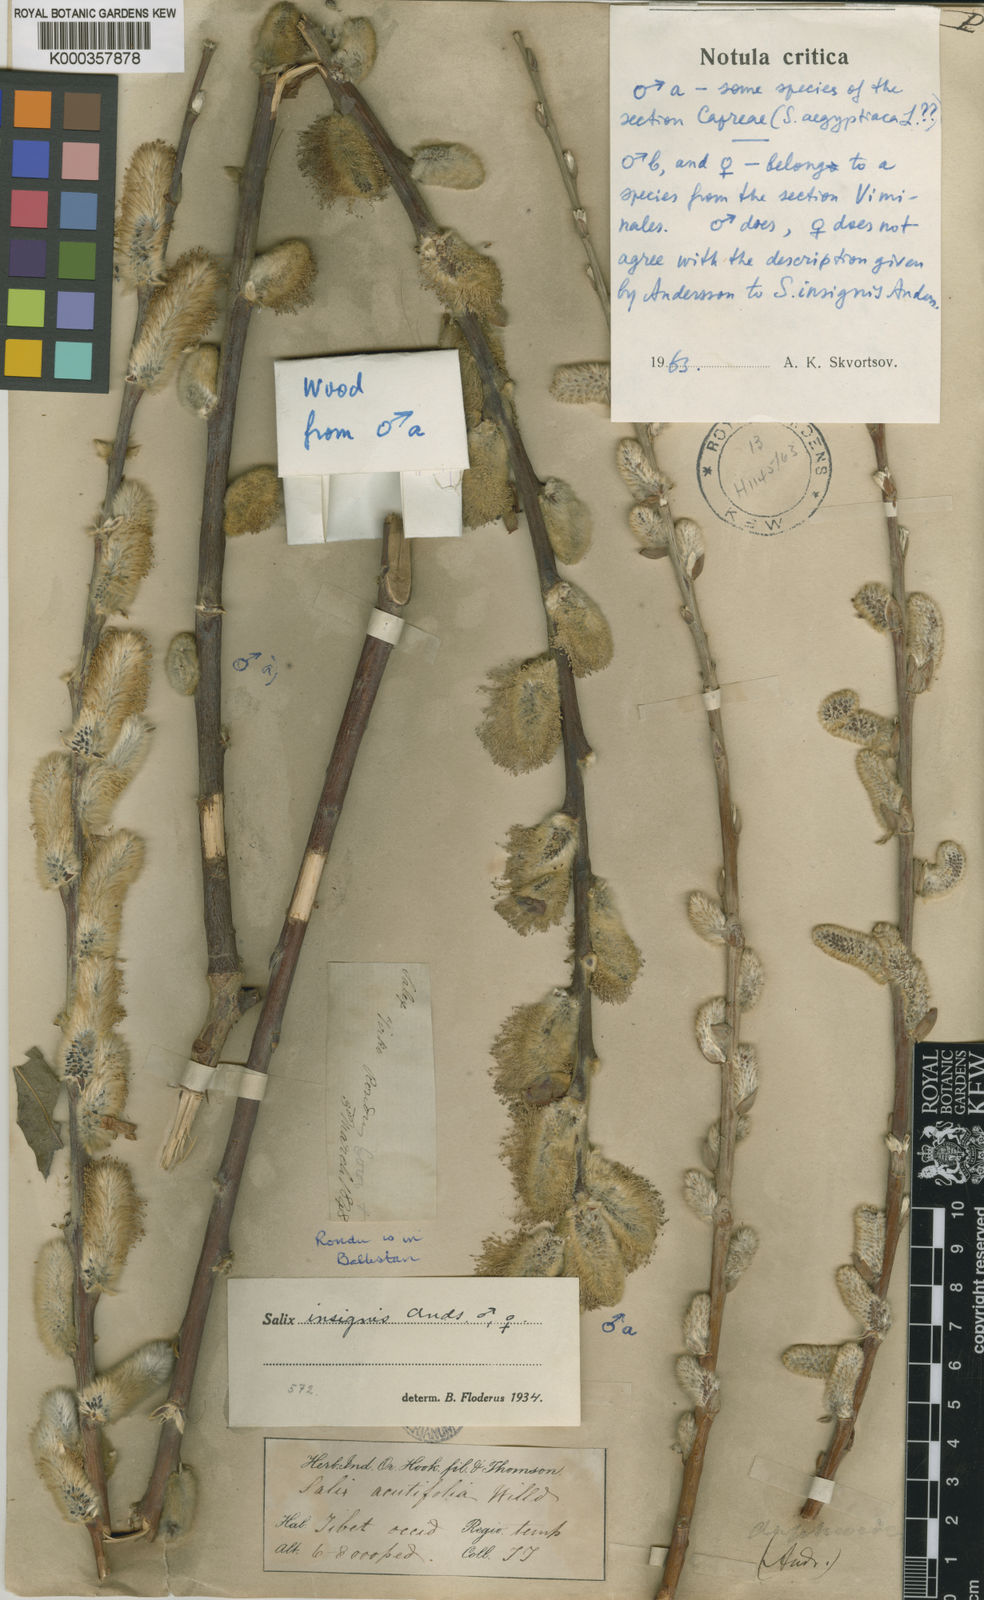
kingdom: Plantae
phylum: Tracheophyta
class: Magnoliopsida
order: Malpighiales
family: Salicaceae
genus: Salix
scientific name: Salix daphnoides
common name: European violet-willow
